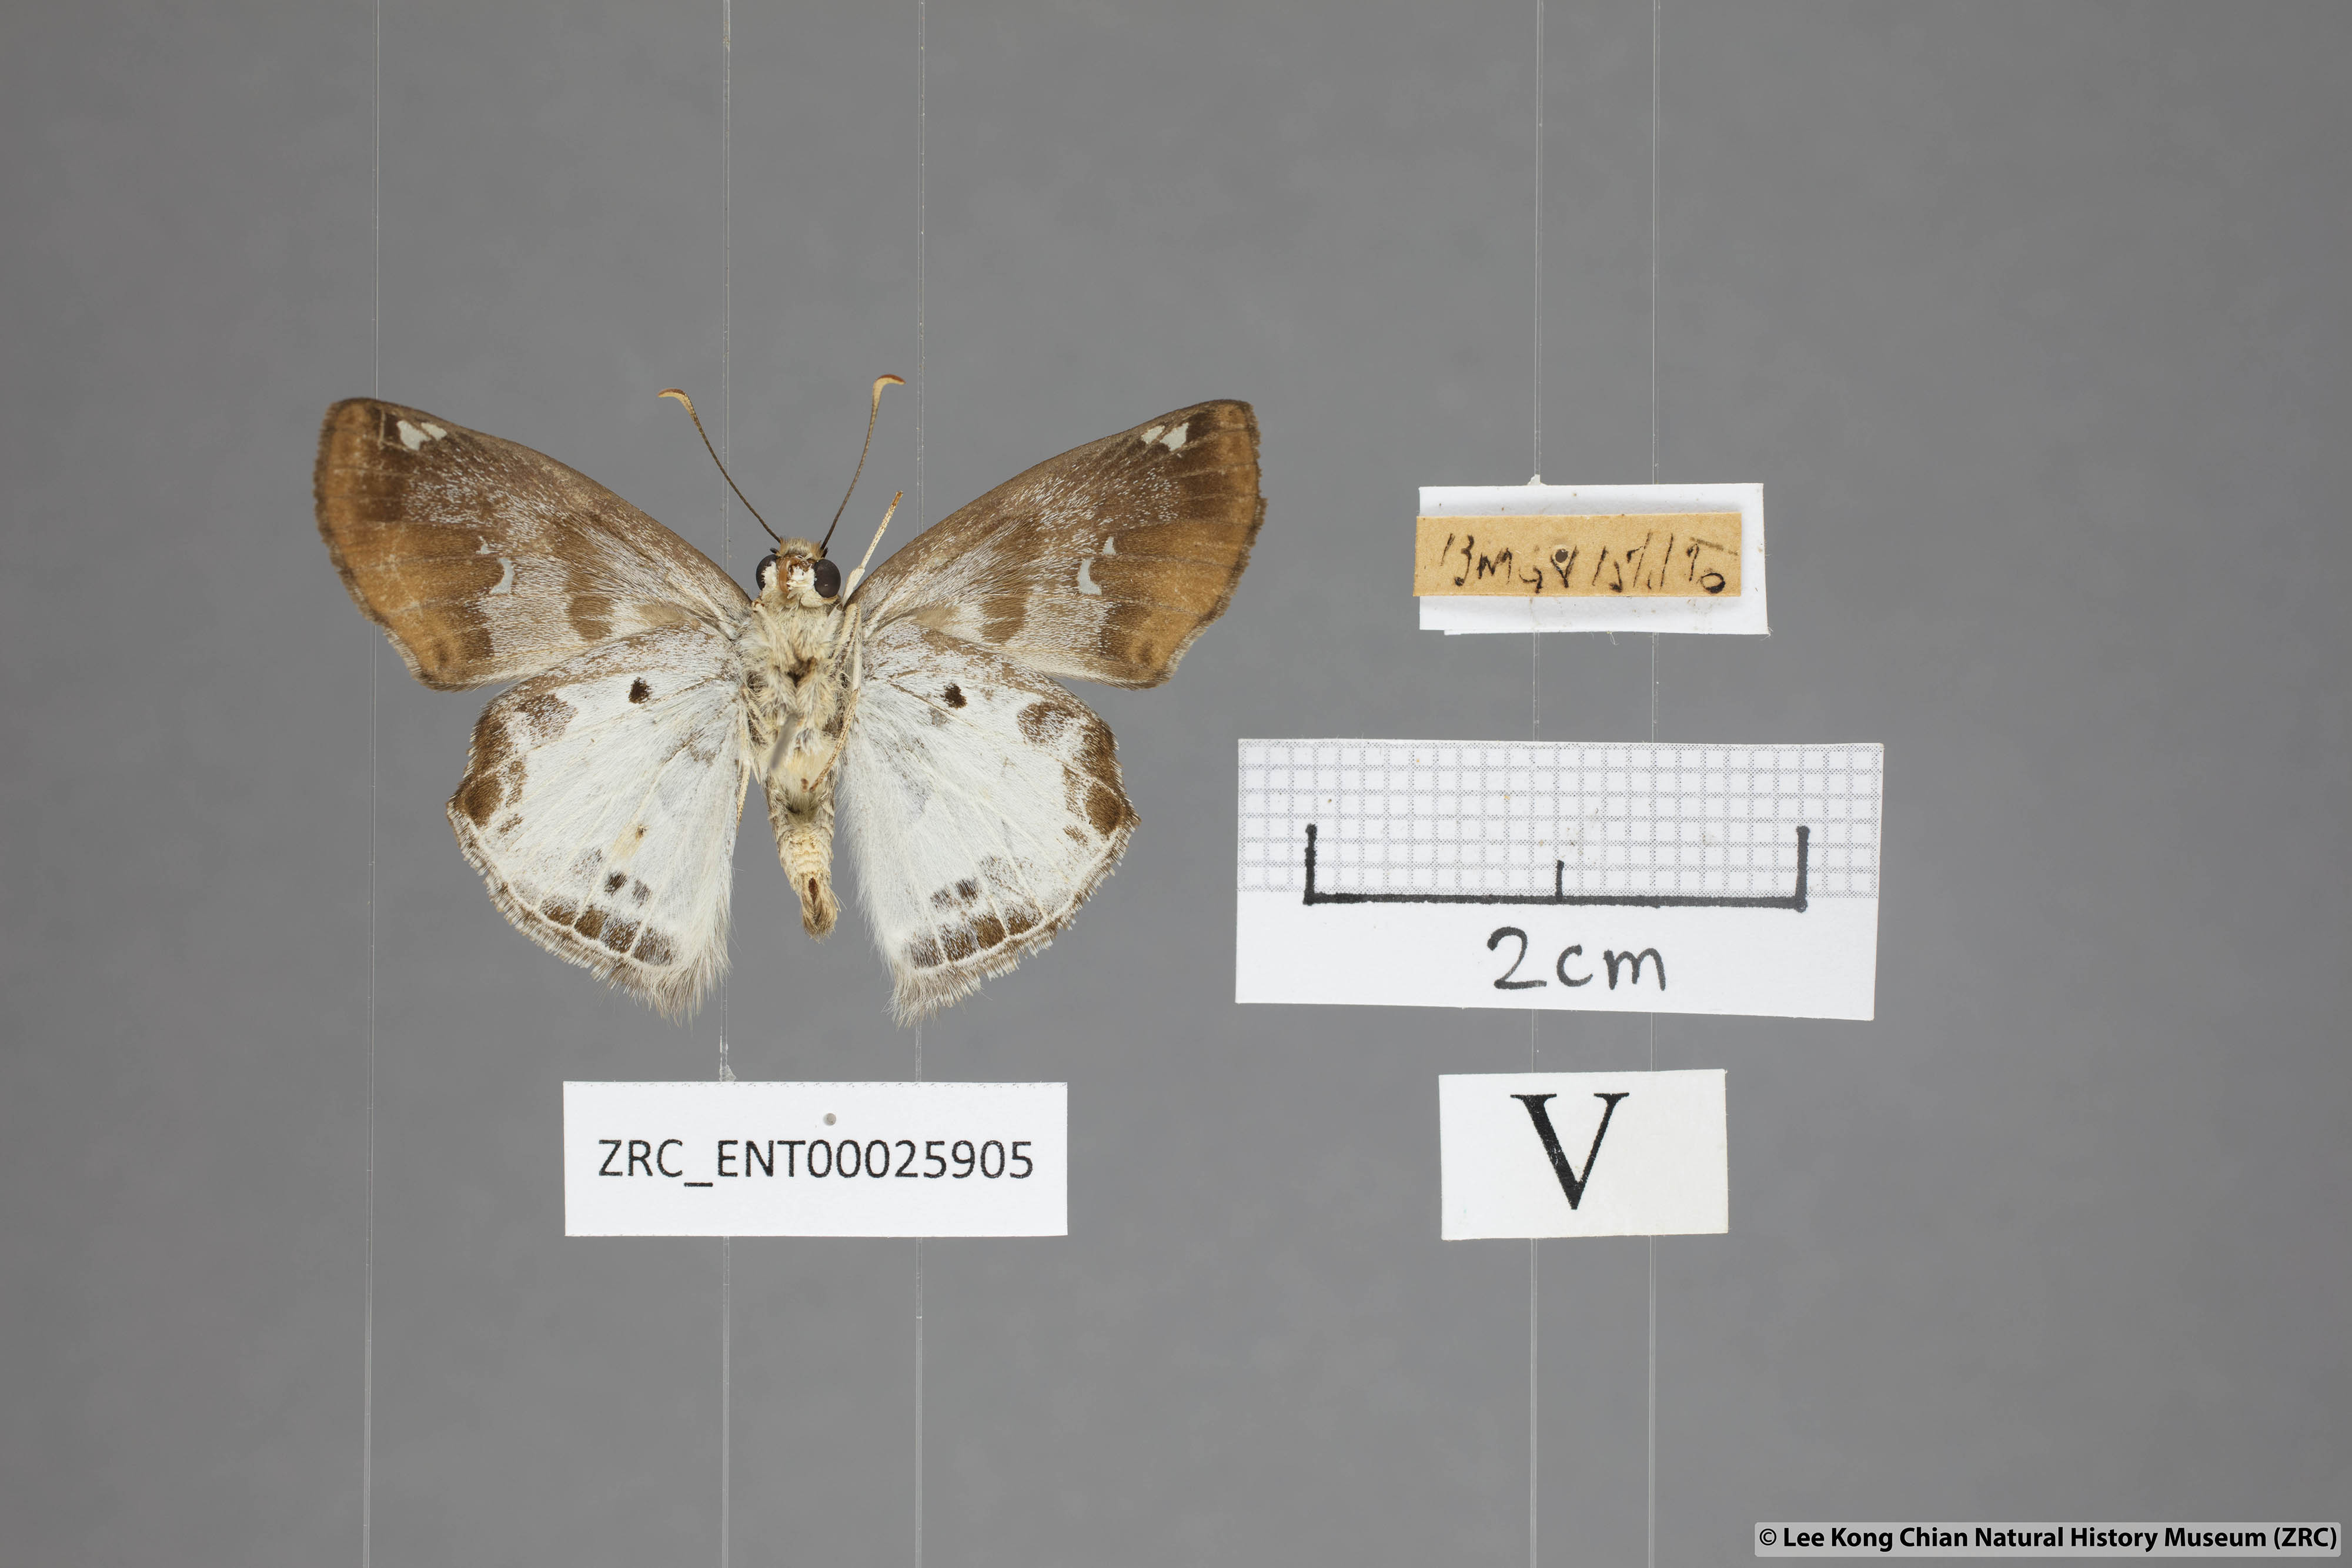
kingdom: Animalia
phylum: Arthropoda
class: Insecta
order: Lepidoptera
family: Hesperiidae
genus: Odontoptilum
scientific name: Odontoptilum angulata
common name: Chestnut banded angle
